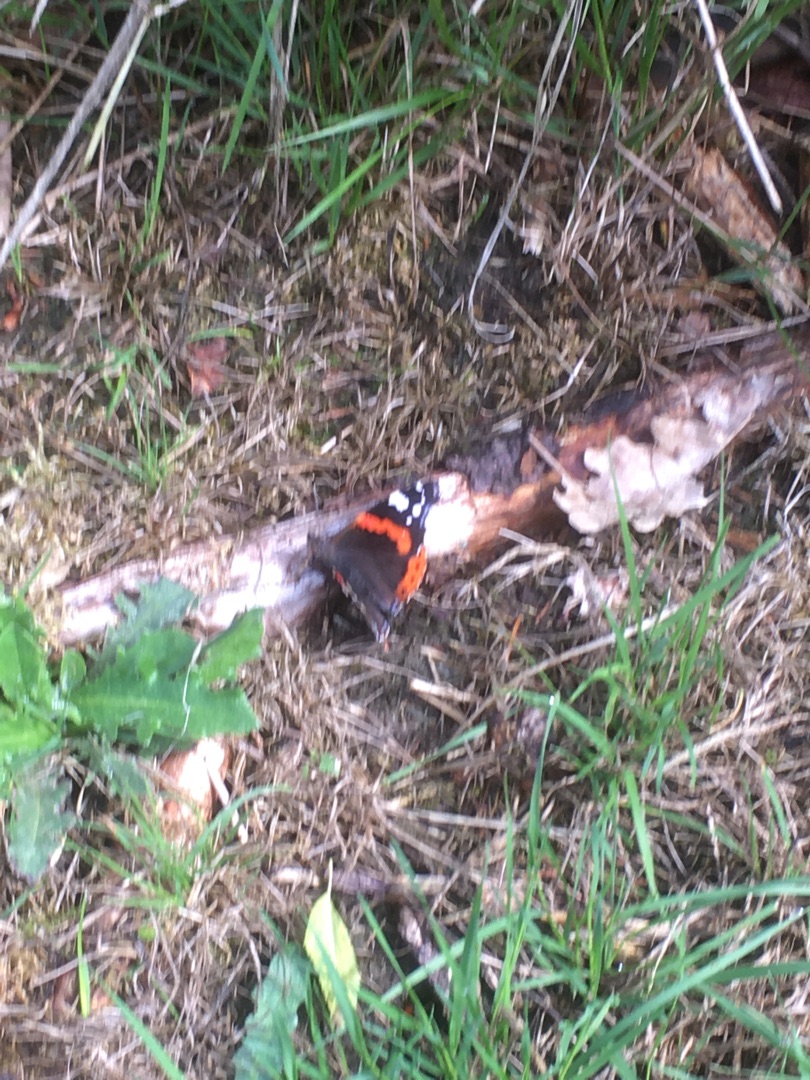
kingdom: Animalia
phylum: Arthropoda
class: Insecta
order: Lepidoptera
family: Nymphalidae
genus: Vanessa
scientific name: Vanessa atalanta
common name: Admiral
